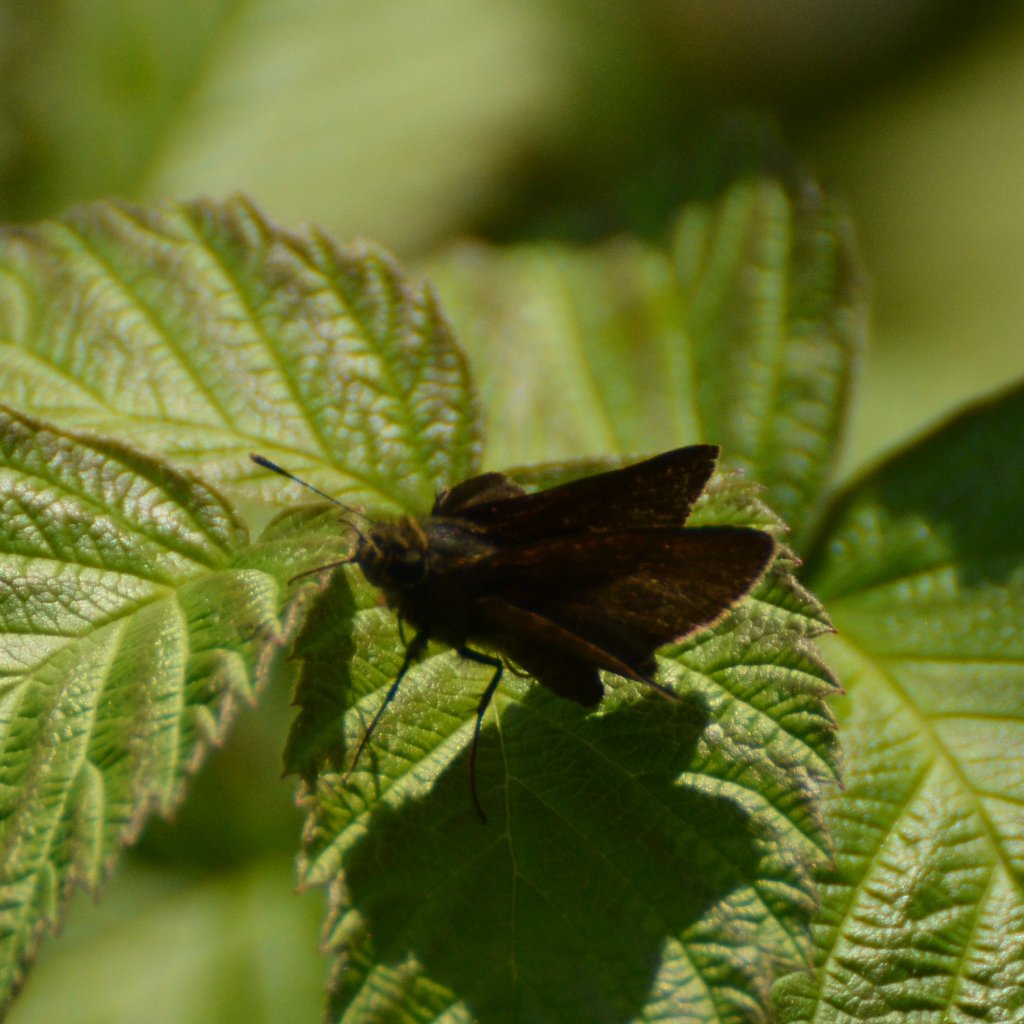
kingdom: Animalia
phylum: Arthropoda
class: Insecta
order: Lepidoptera
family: Hesperiidae
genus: Euphyes
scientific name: Euphyes vestris
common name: Dun Skipper
